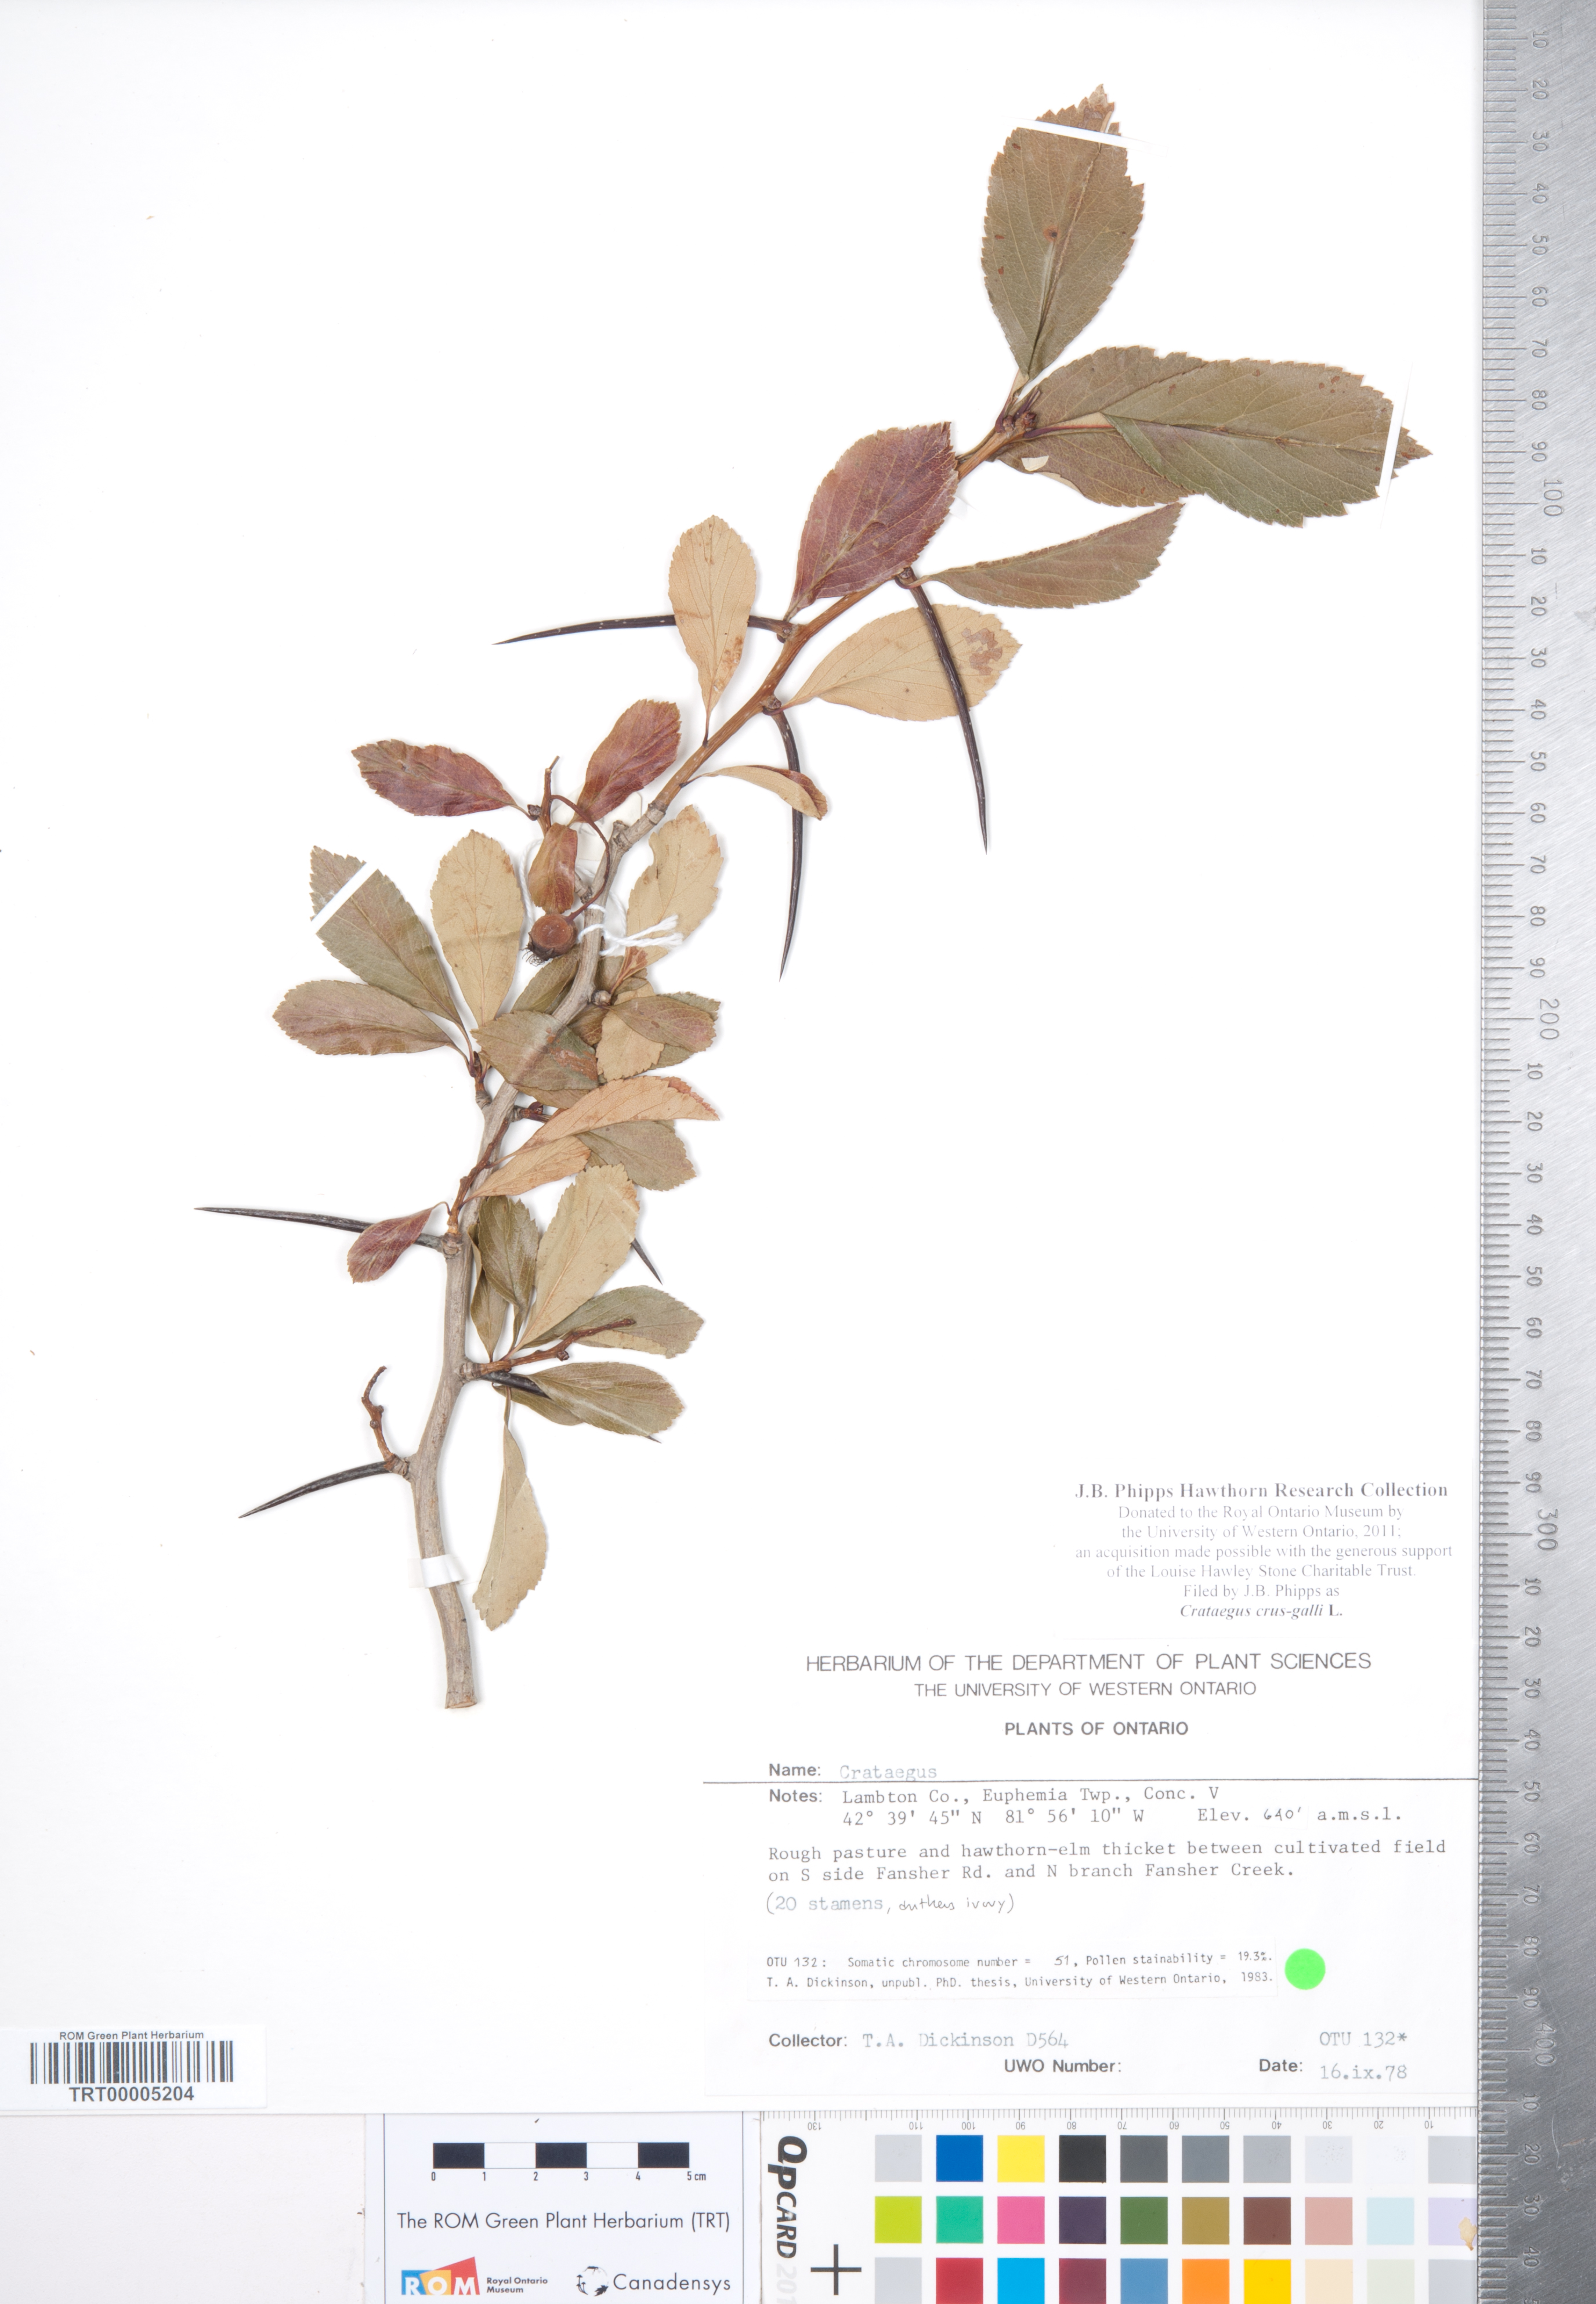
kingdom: Plantae
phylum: Tracheophyta
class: Magnoliopsida
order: Rosales
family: Rosaceae
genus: Crataegus
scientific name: Crataegus crus-galli
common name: Cockspurthorn
